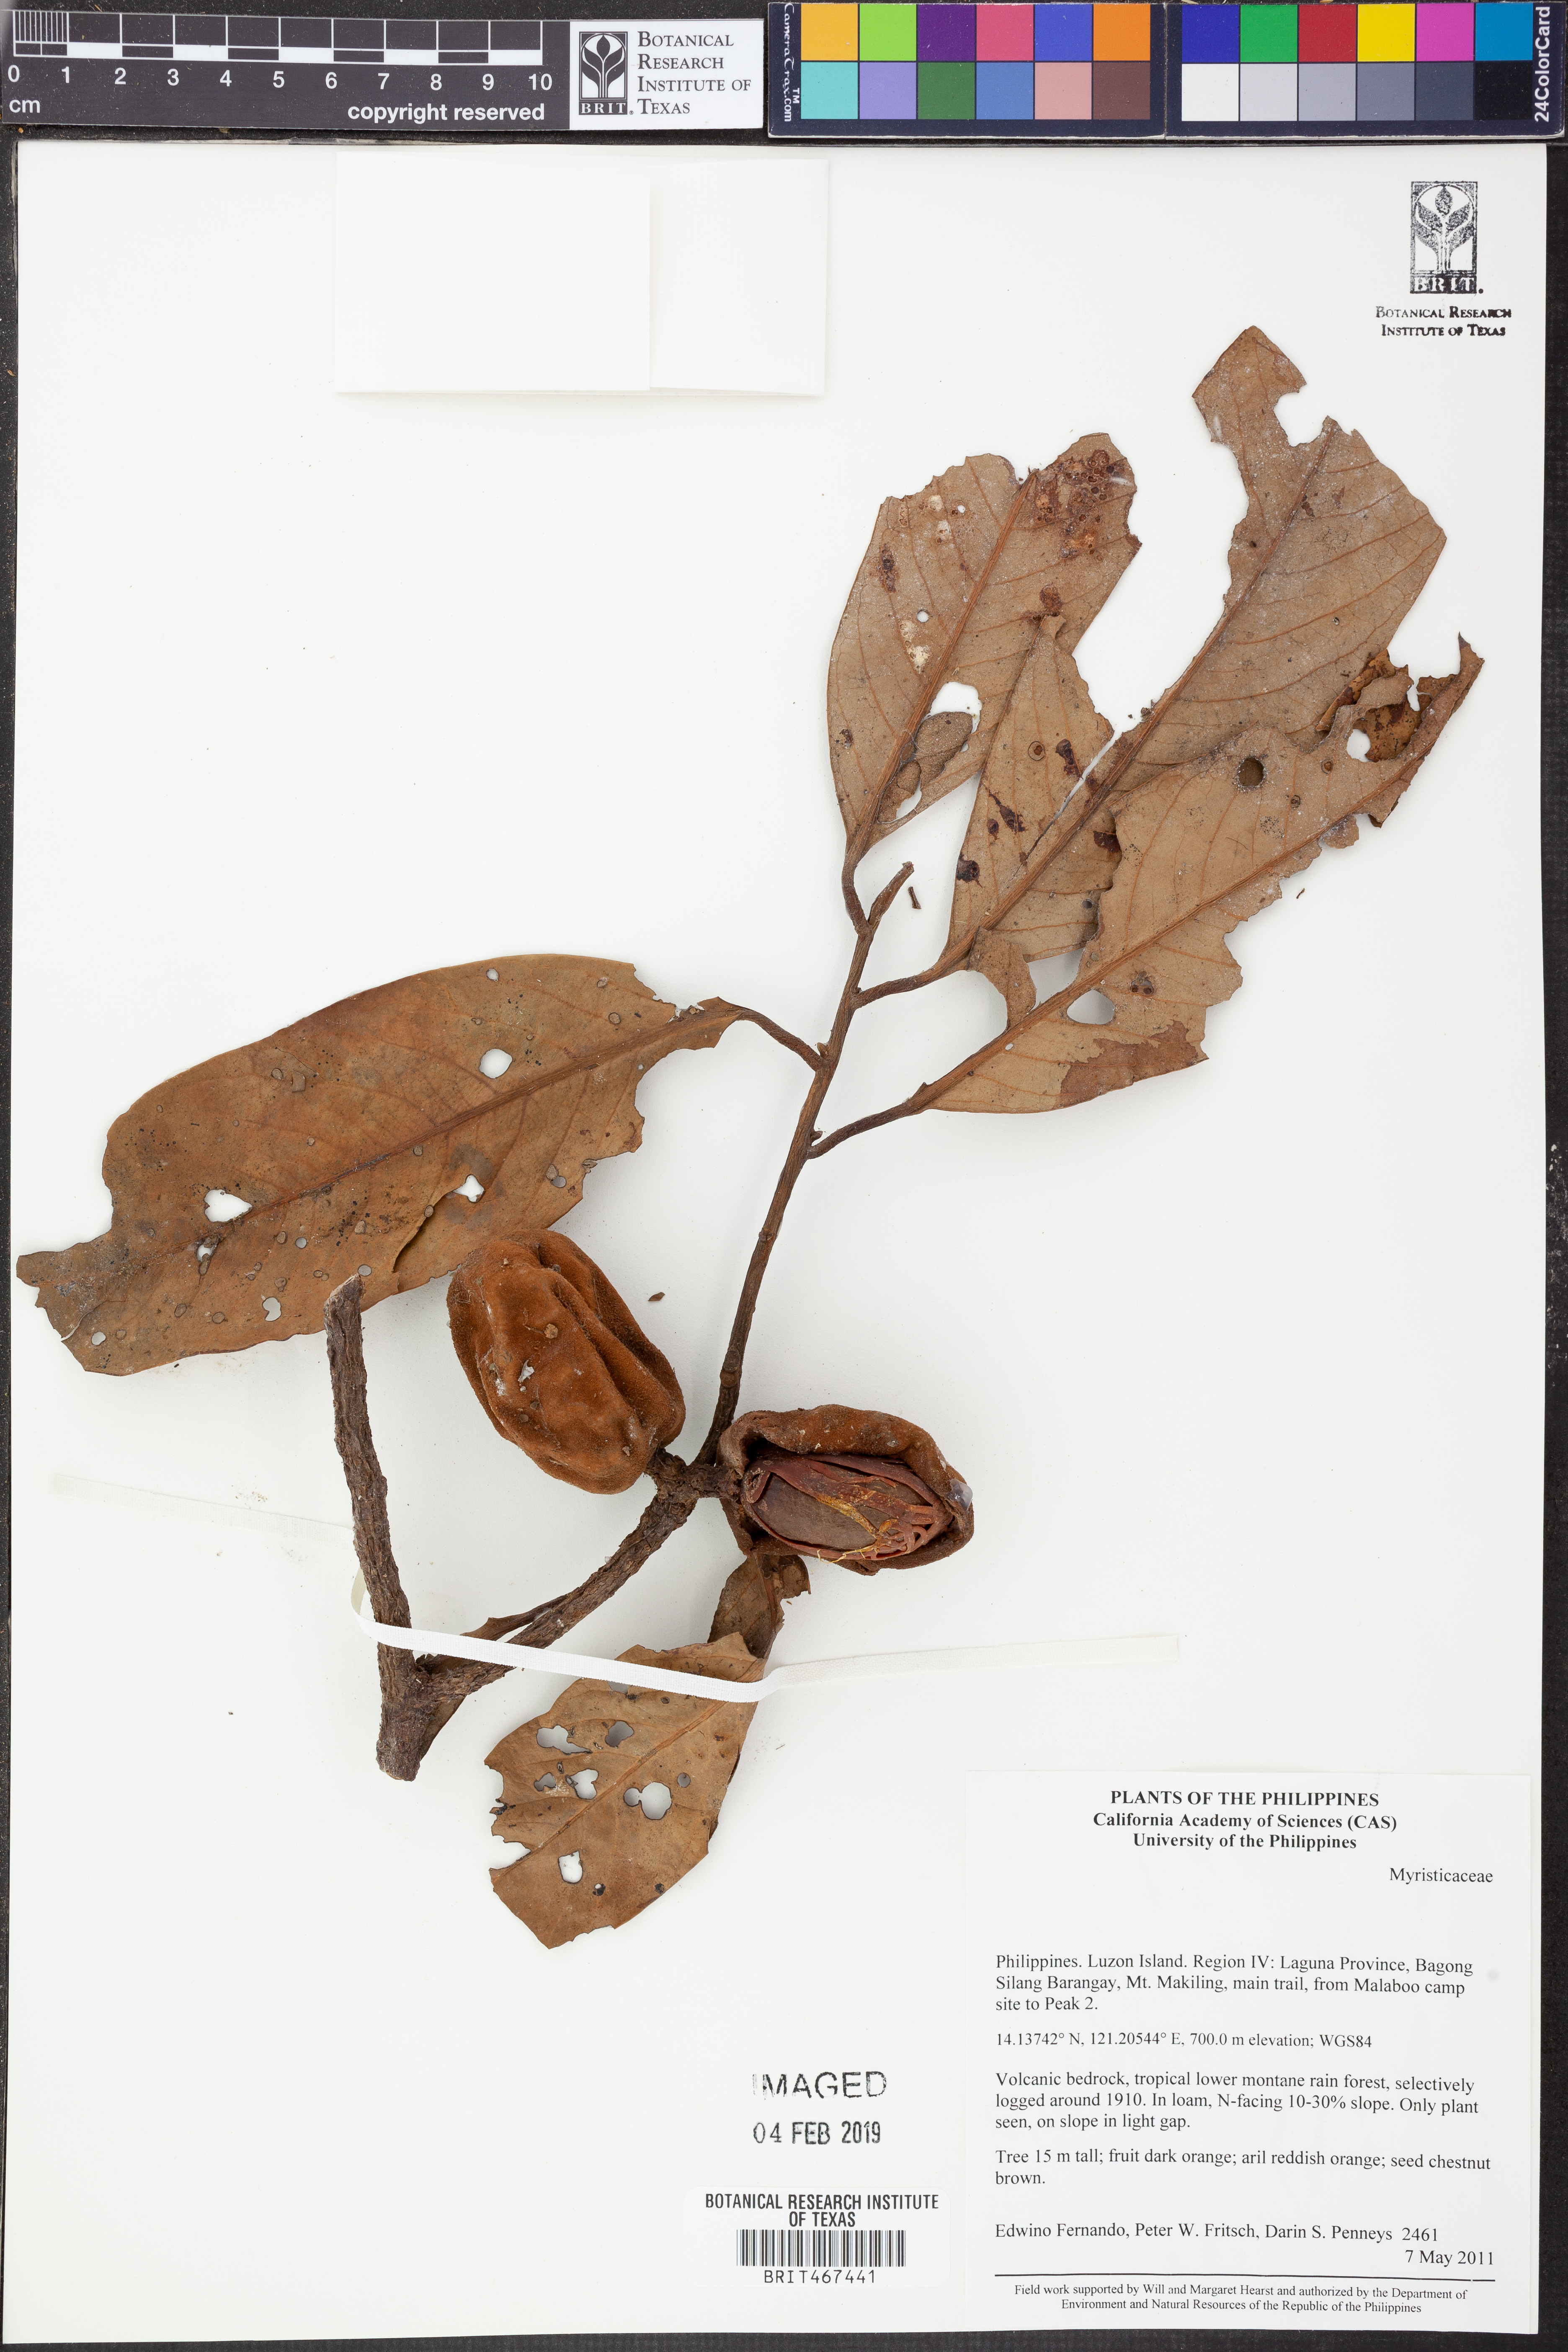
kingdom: Plantae
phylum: Tracheophyta
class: Magnoliopsida
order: Magnoliales
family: Myristicaceae
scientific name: Myristicaceae
